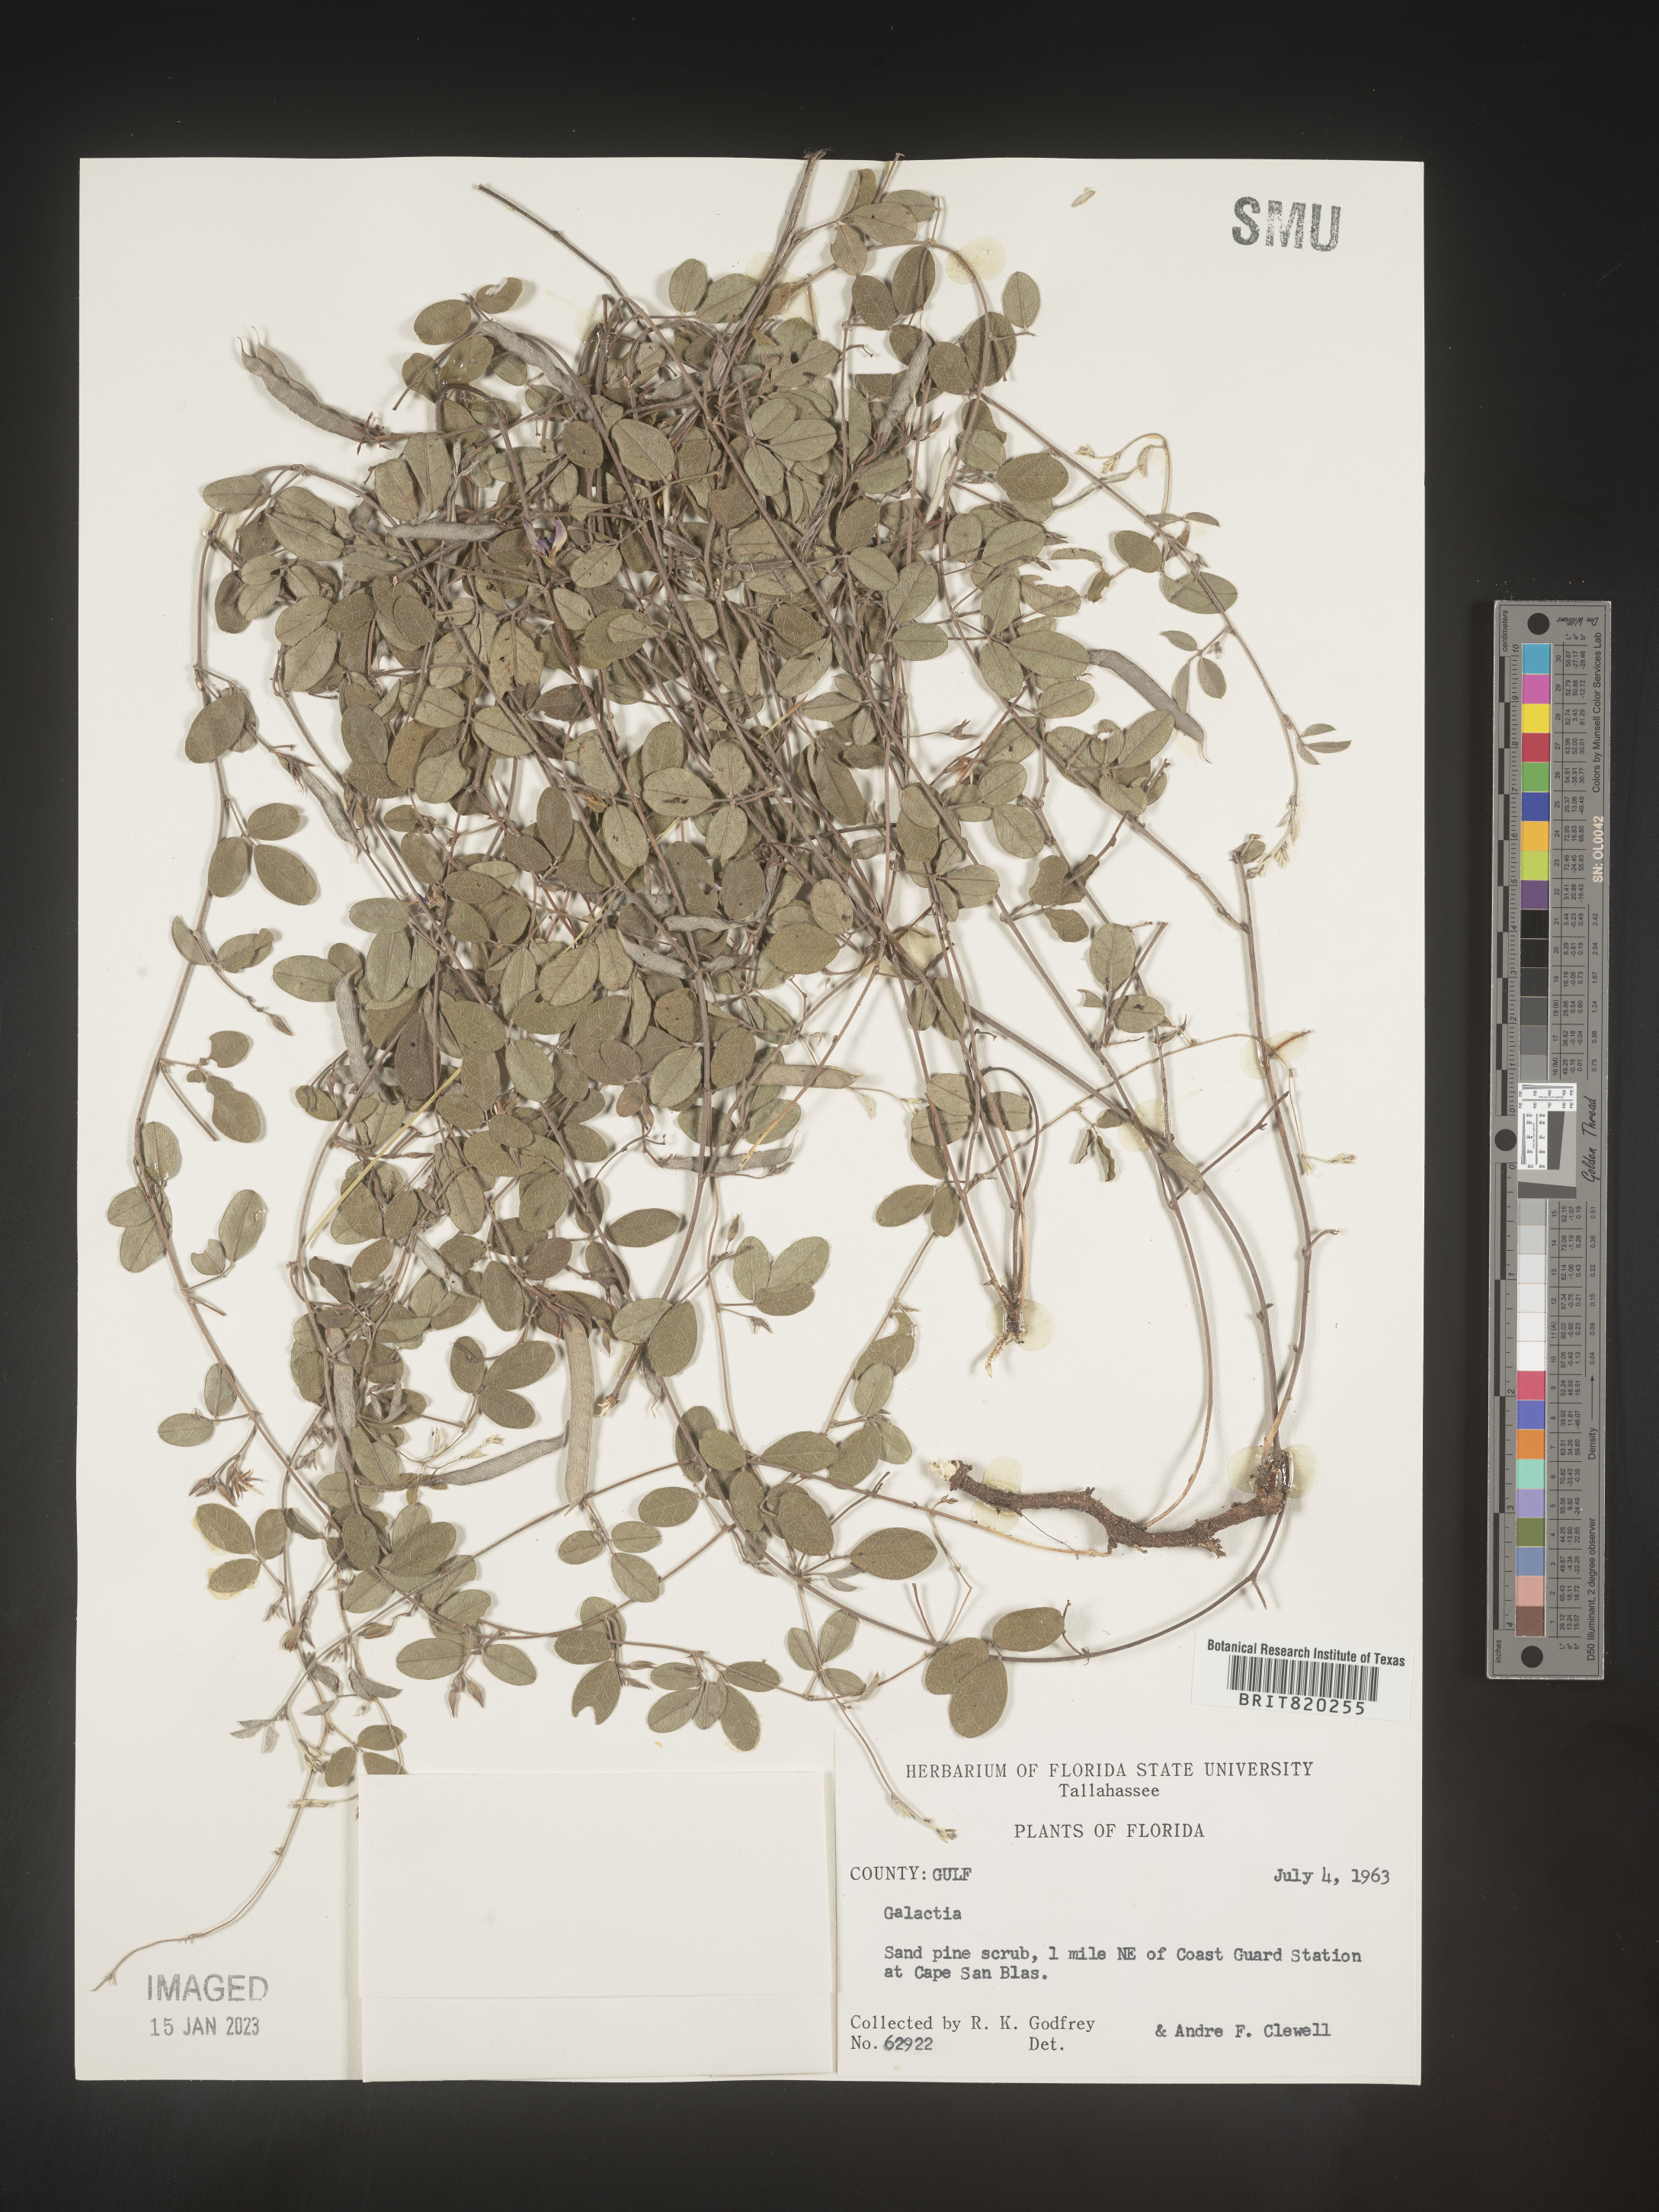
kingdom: Plantae
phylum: Tracheophyta
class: Magnoliopsida
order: Fabales
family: Fabaceae
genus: Galactia
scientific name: Galactia microphylla
